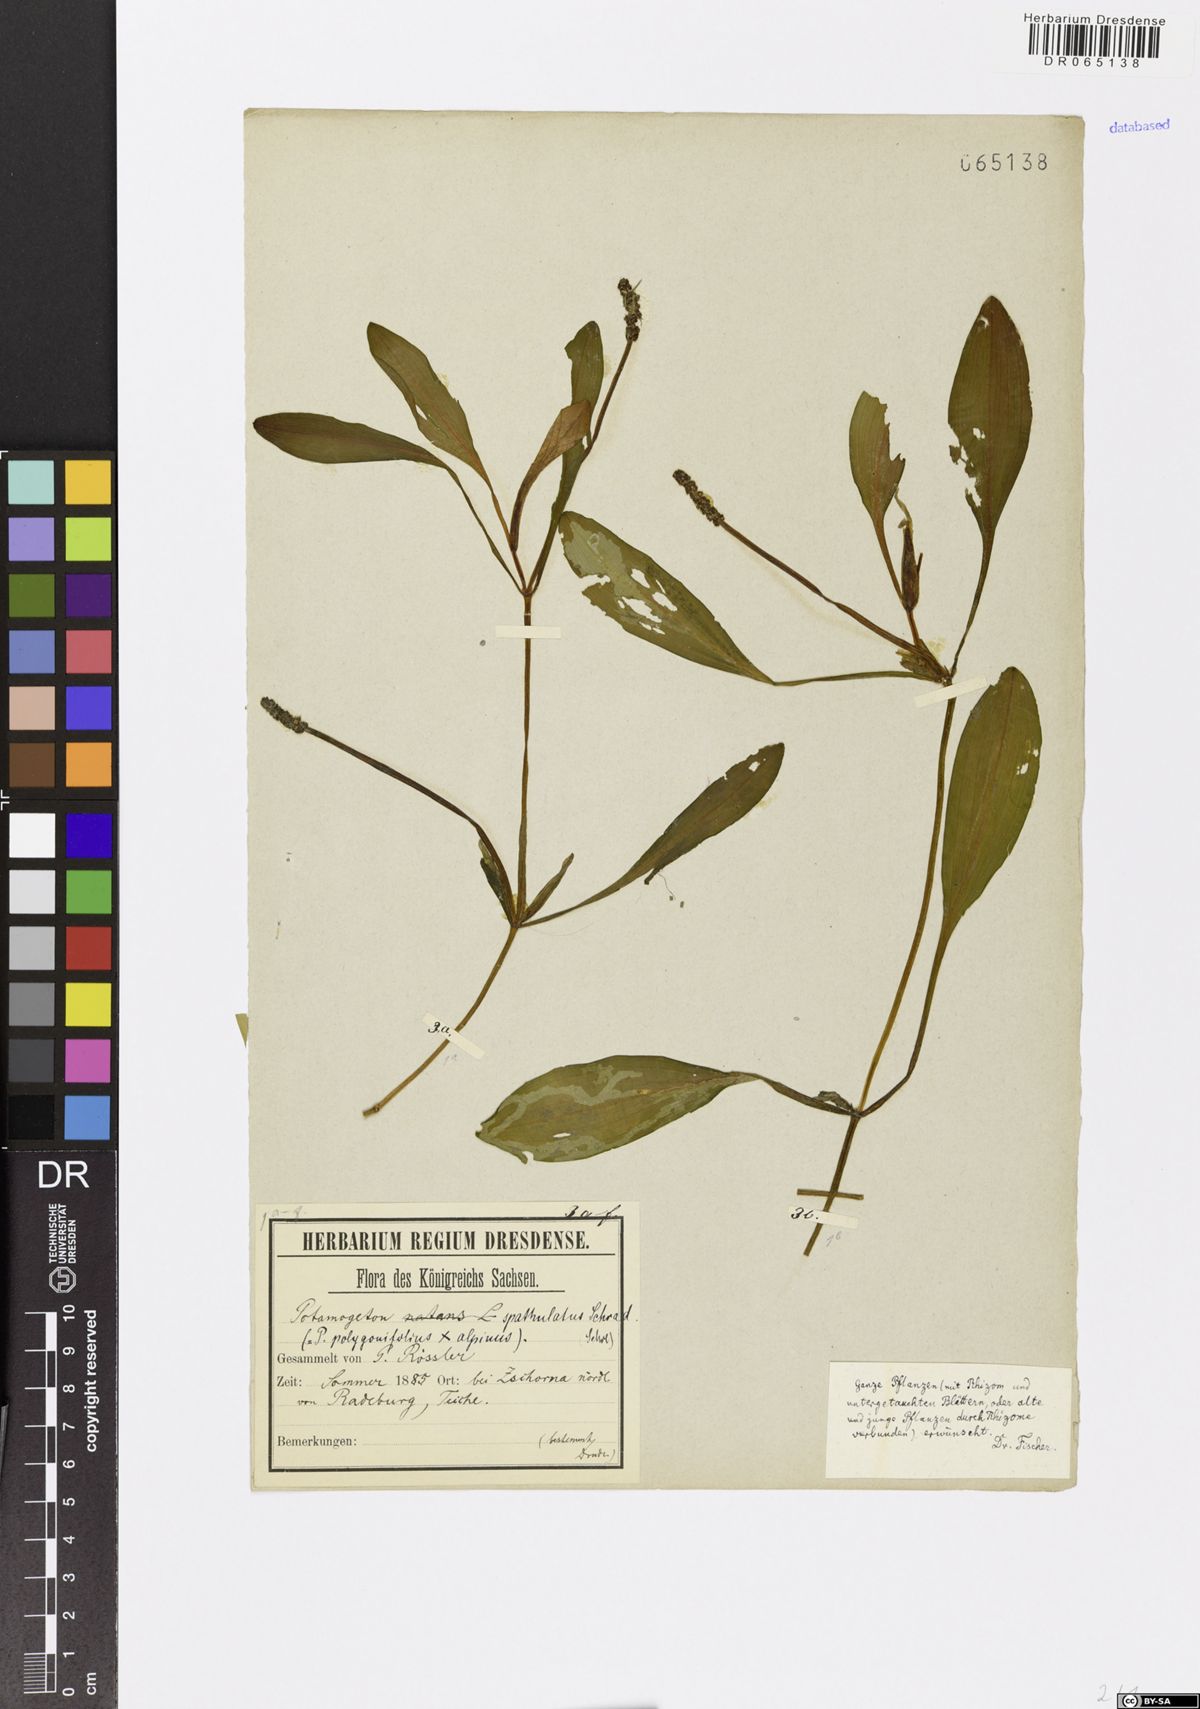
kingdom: Plantae
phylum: Tracheophyta
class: Liliopsida
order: Alismatales
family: Potamogetonaceae
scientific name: Potamogetonaceae
